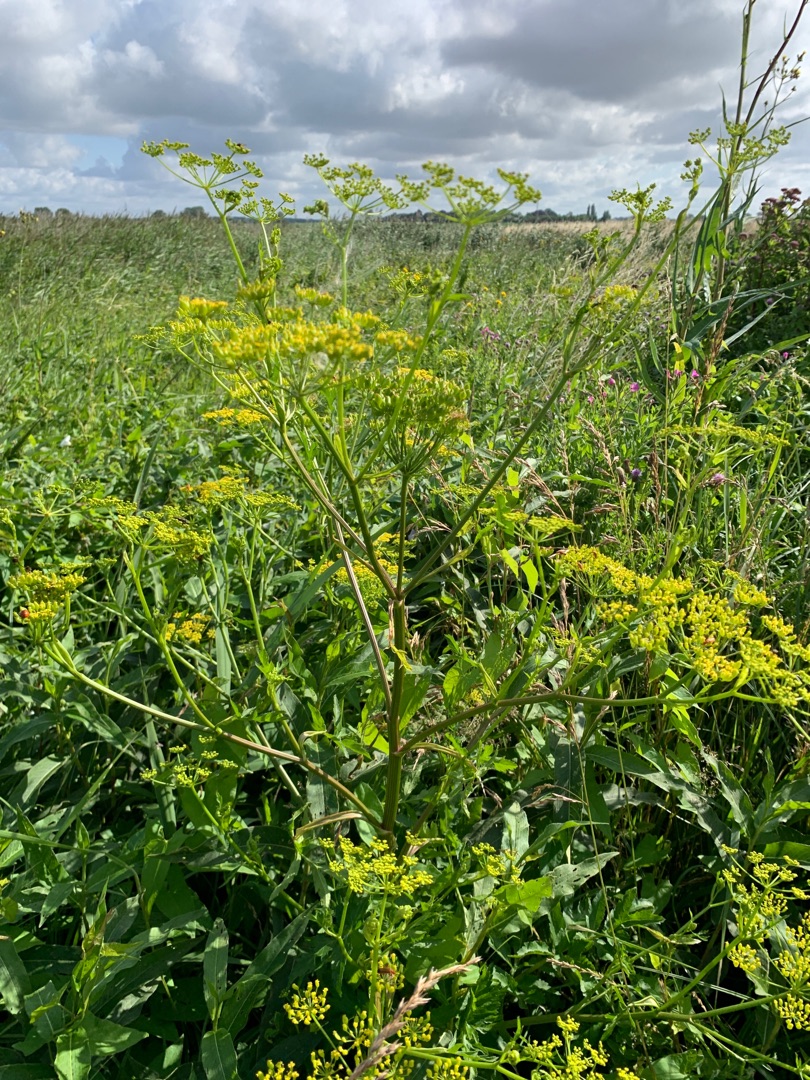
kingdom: Plantae
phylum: Tracheophyta
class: Magnoliopsida
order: Apiales
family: Apiaceae
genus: Pastinaca
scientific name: Pastinaca sativa
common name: Have-pastinak
